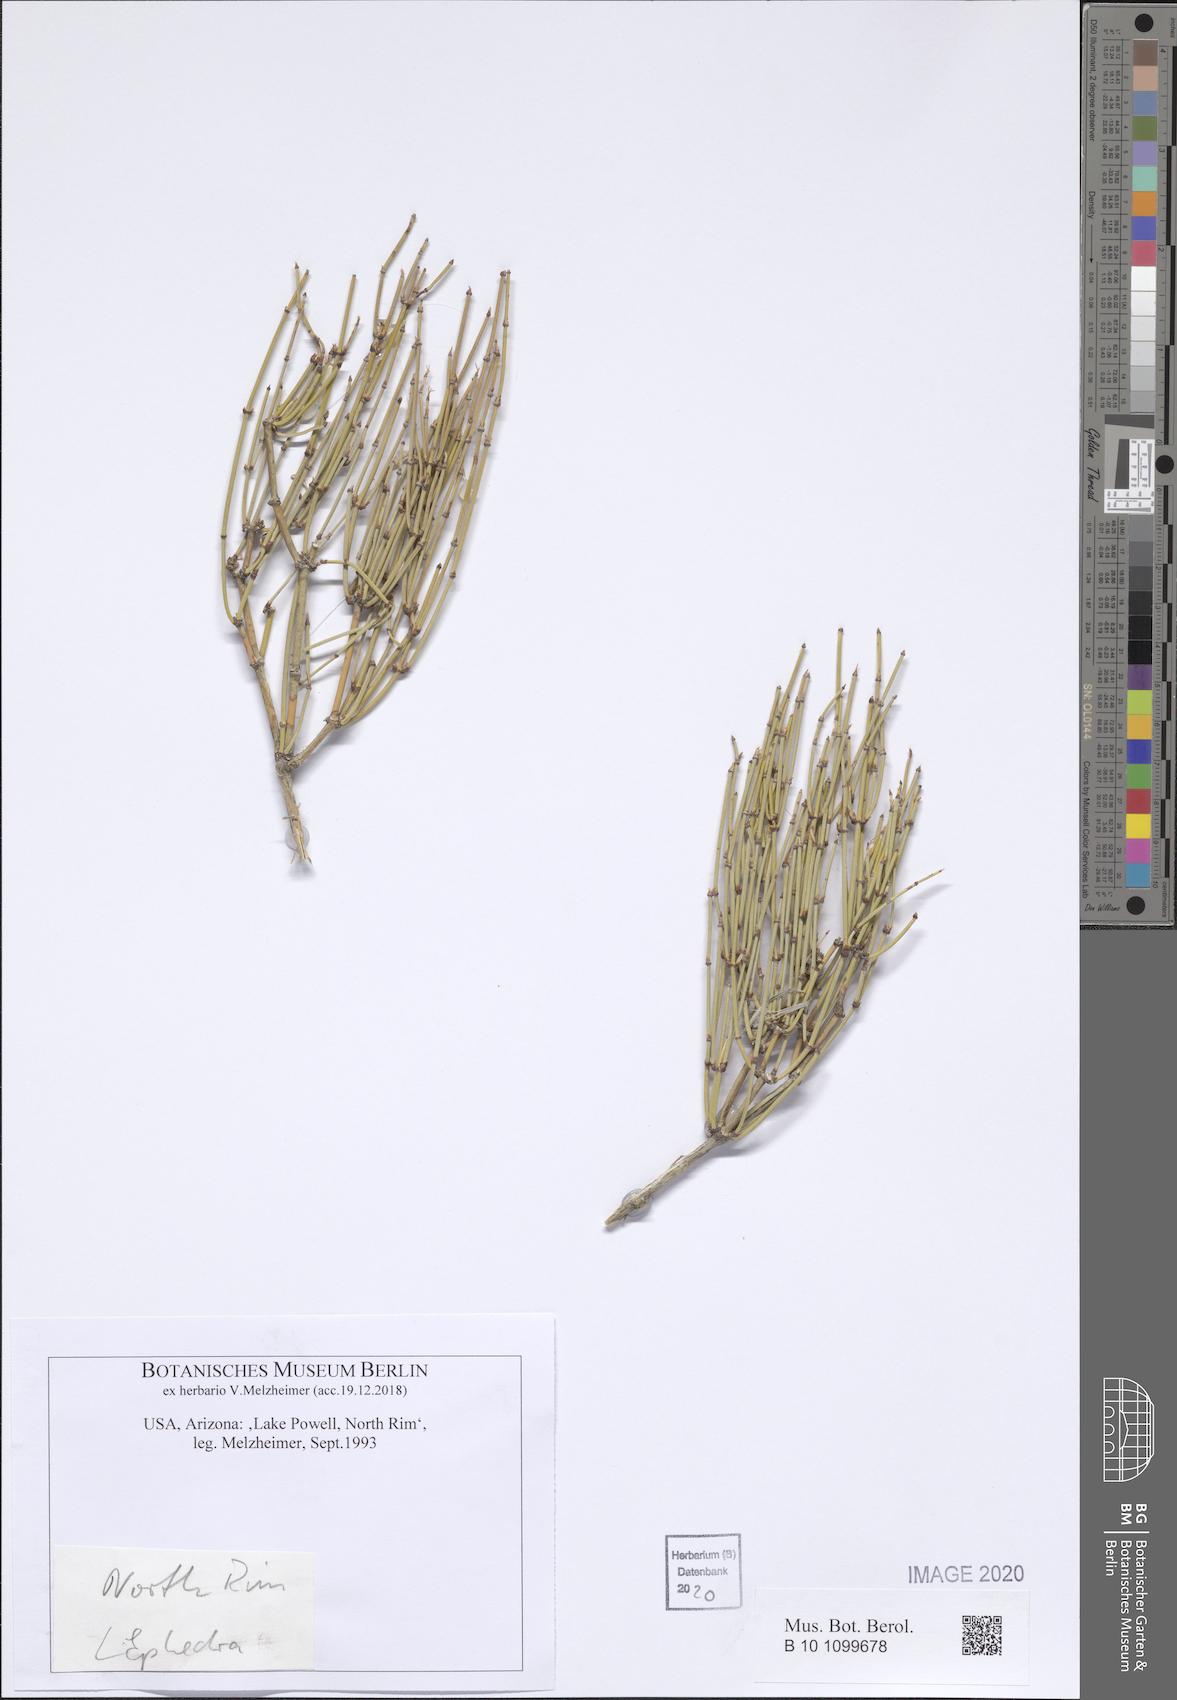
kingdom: Plantae
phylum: Tracheophyta
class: Gnetopsida
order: Ephedrales
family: Ephedraceae
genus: Ephedra
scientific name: Ephedra
